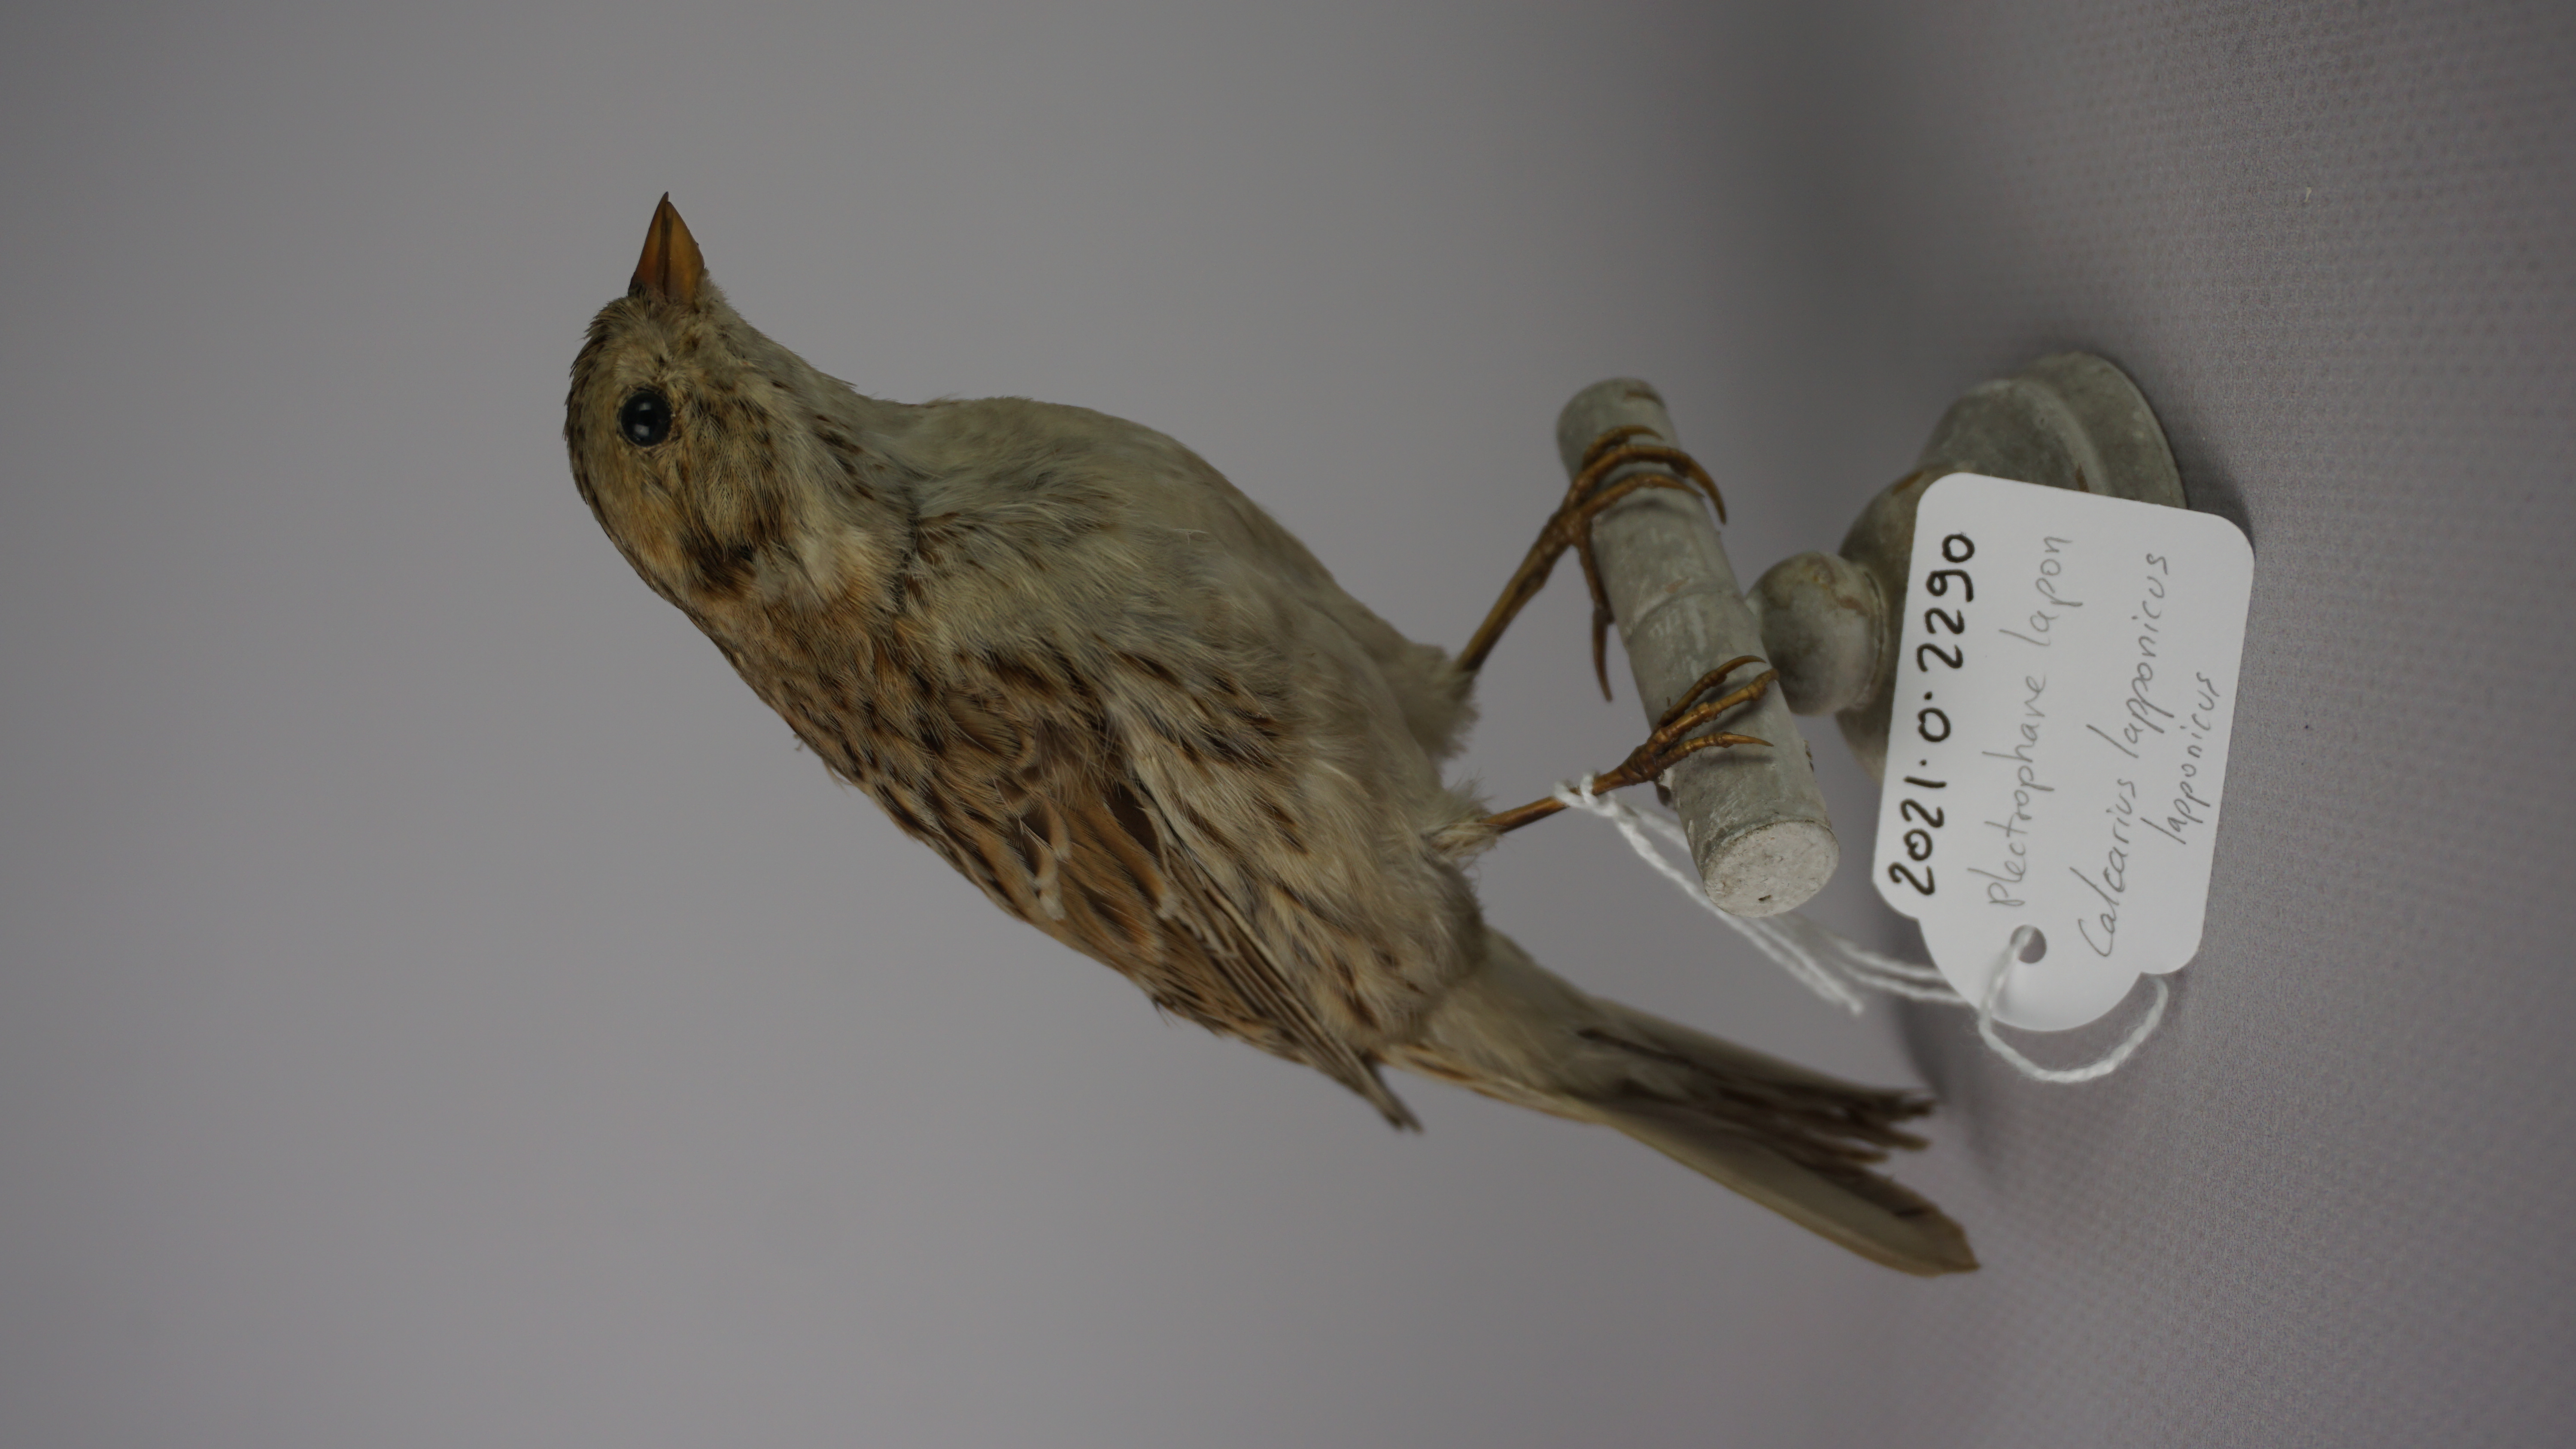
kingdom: Animalia
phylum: Chordata
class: Aves
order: Passeriformes
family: Calcariidae
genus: Calcarius
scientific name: Calcarius lapponicus
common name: Lapland longspur
